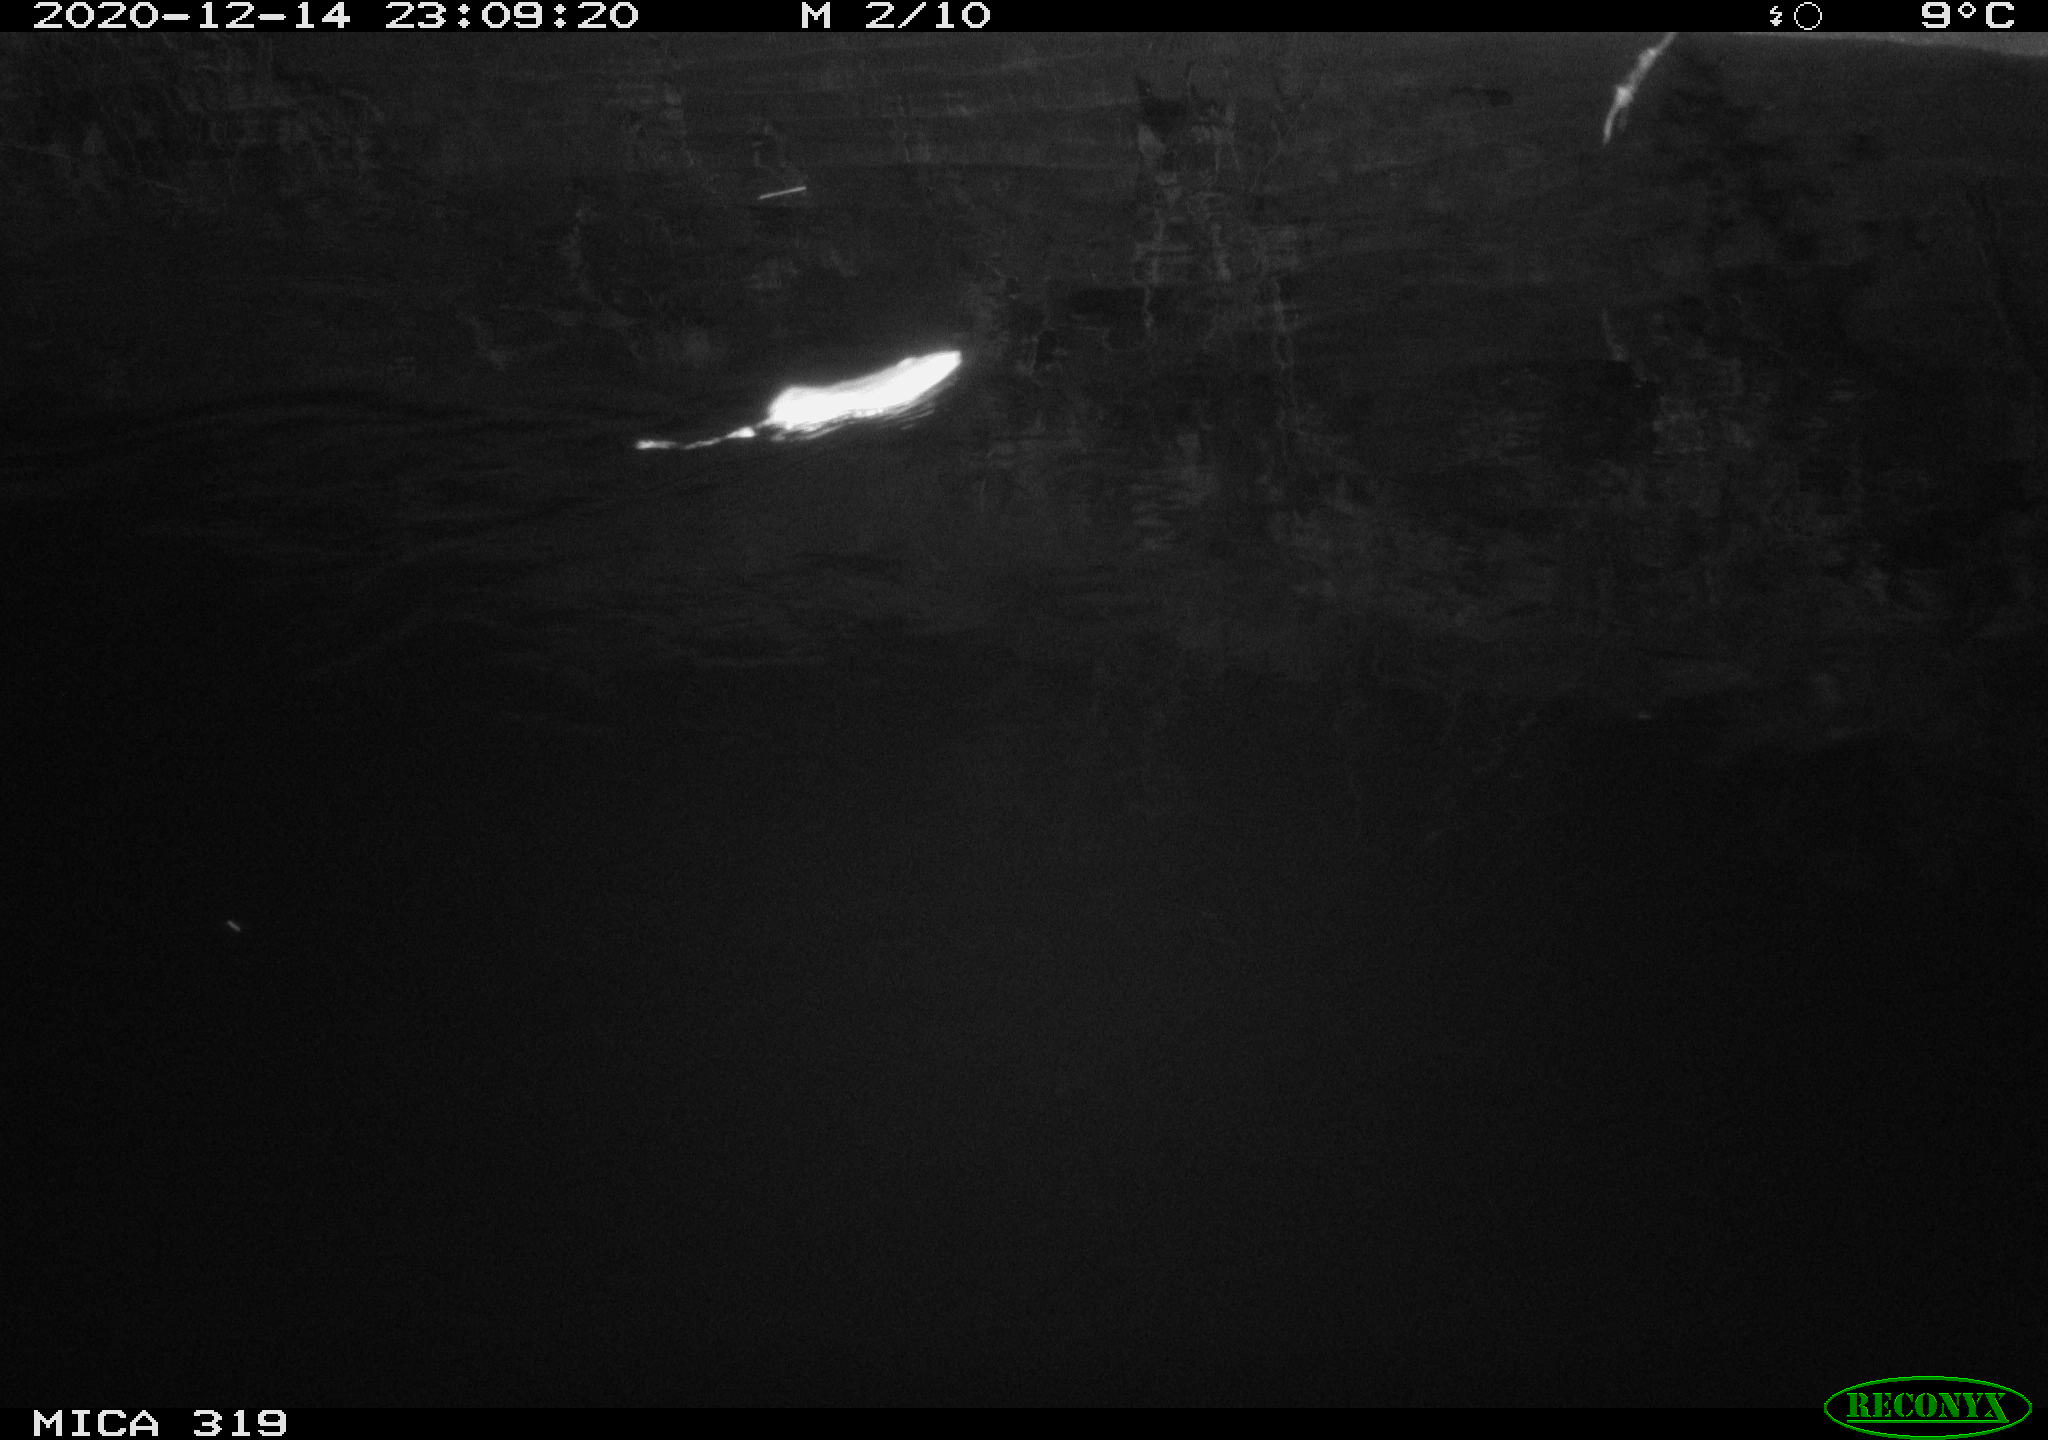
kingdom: Animalia
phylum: Chordata
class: Mammalia
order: Rodentia
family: Muridae
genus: Rattus
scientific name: Rattus norvegicus
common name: Brown rat
